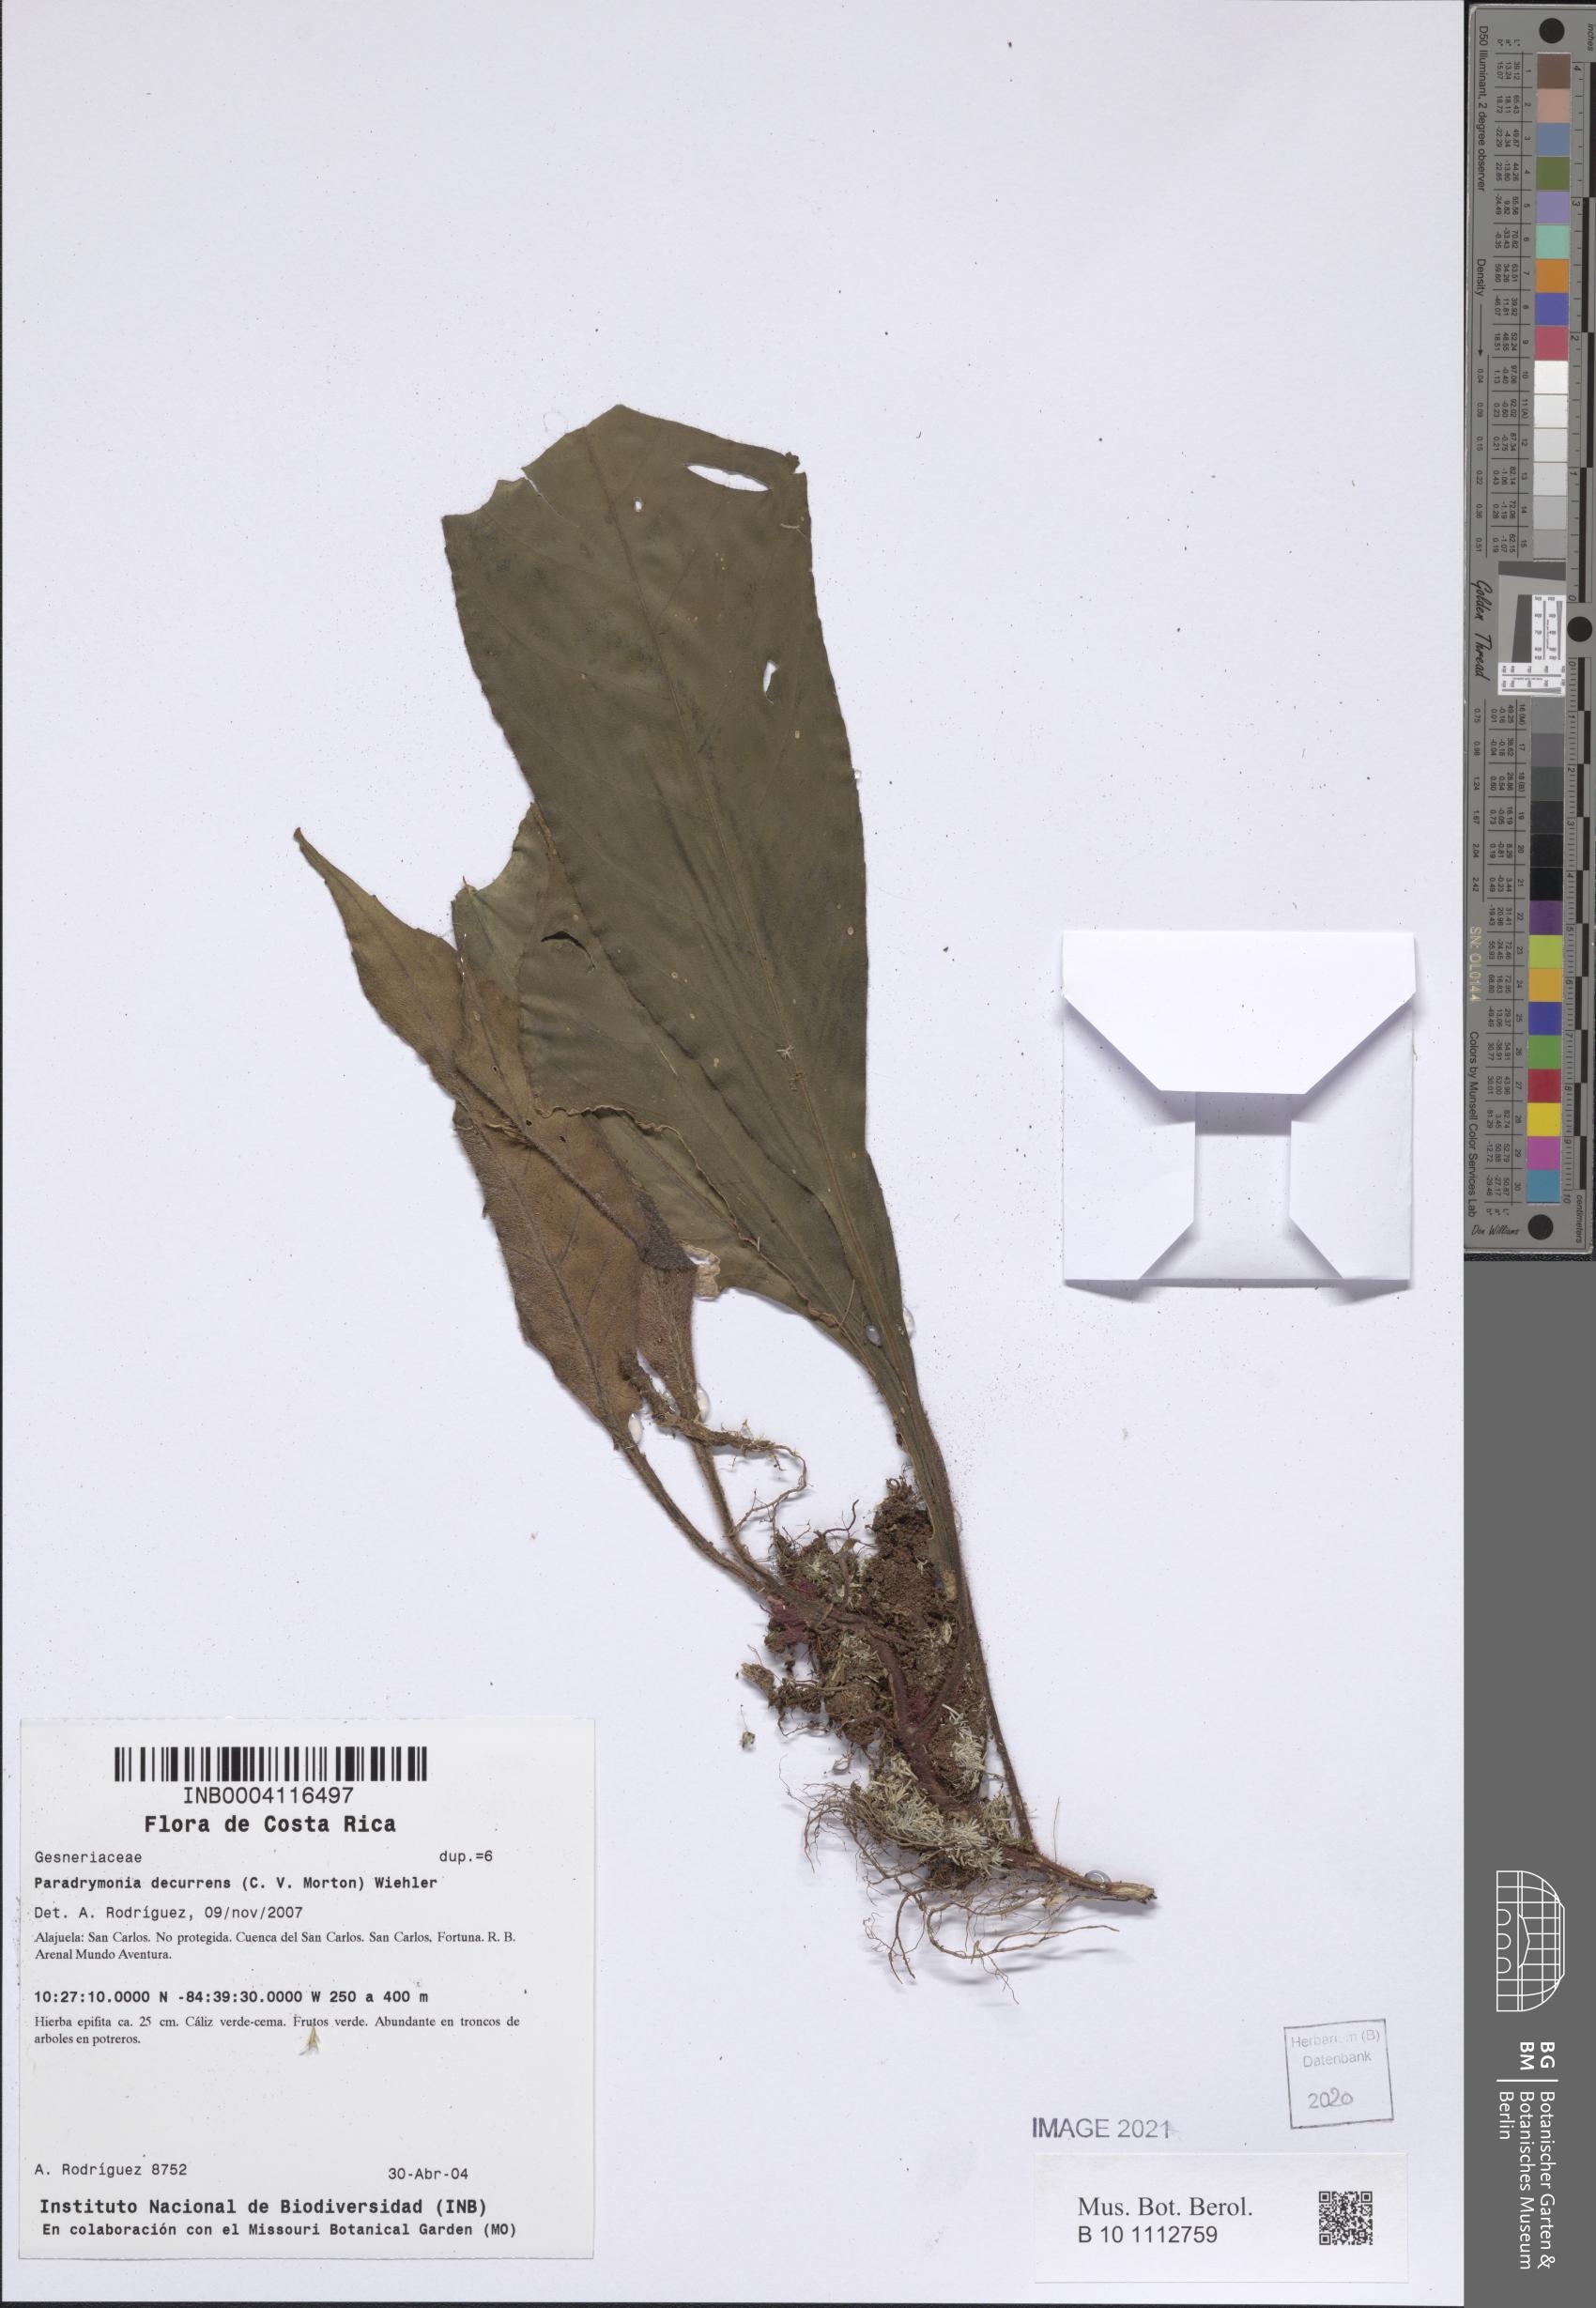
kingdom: Plantae
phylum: Tracheophyta
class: Magnoliopsida
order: Lamiales
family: Gesneriaceae
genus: Paradrymonia
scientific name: Paradrymonia decurrens
